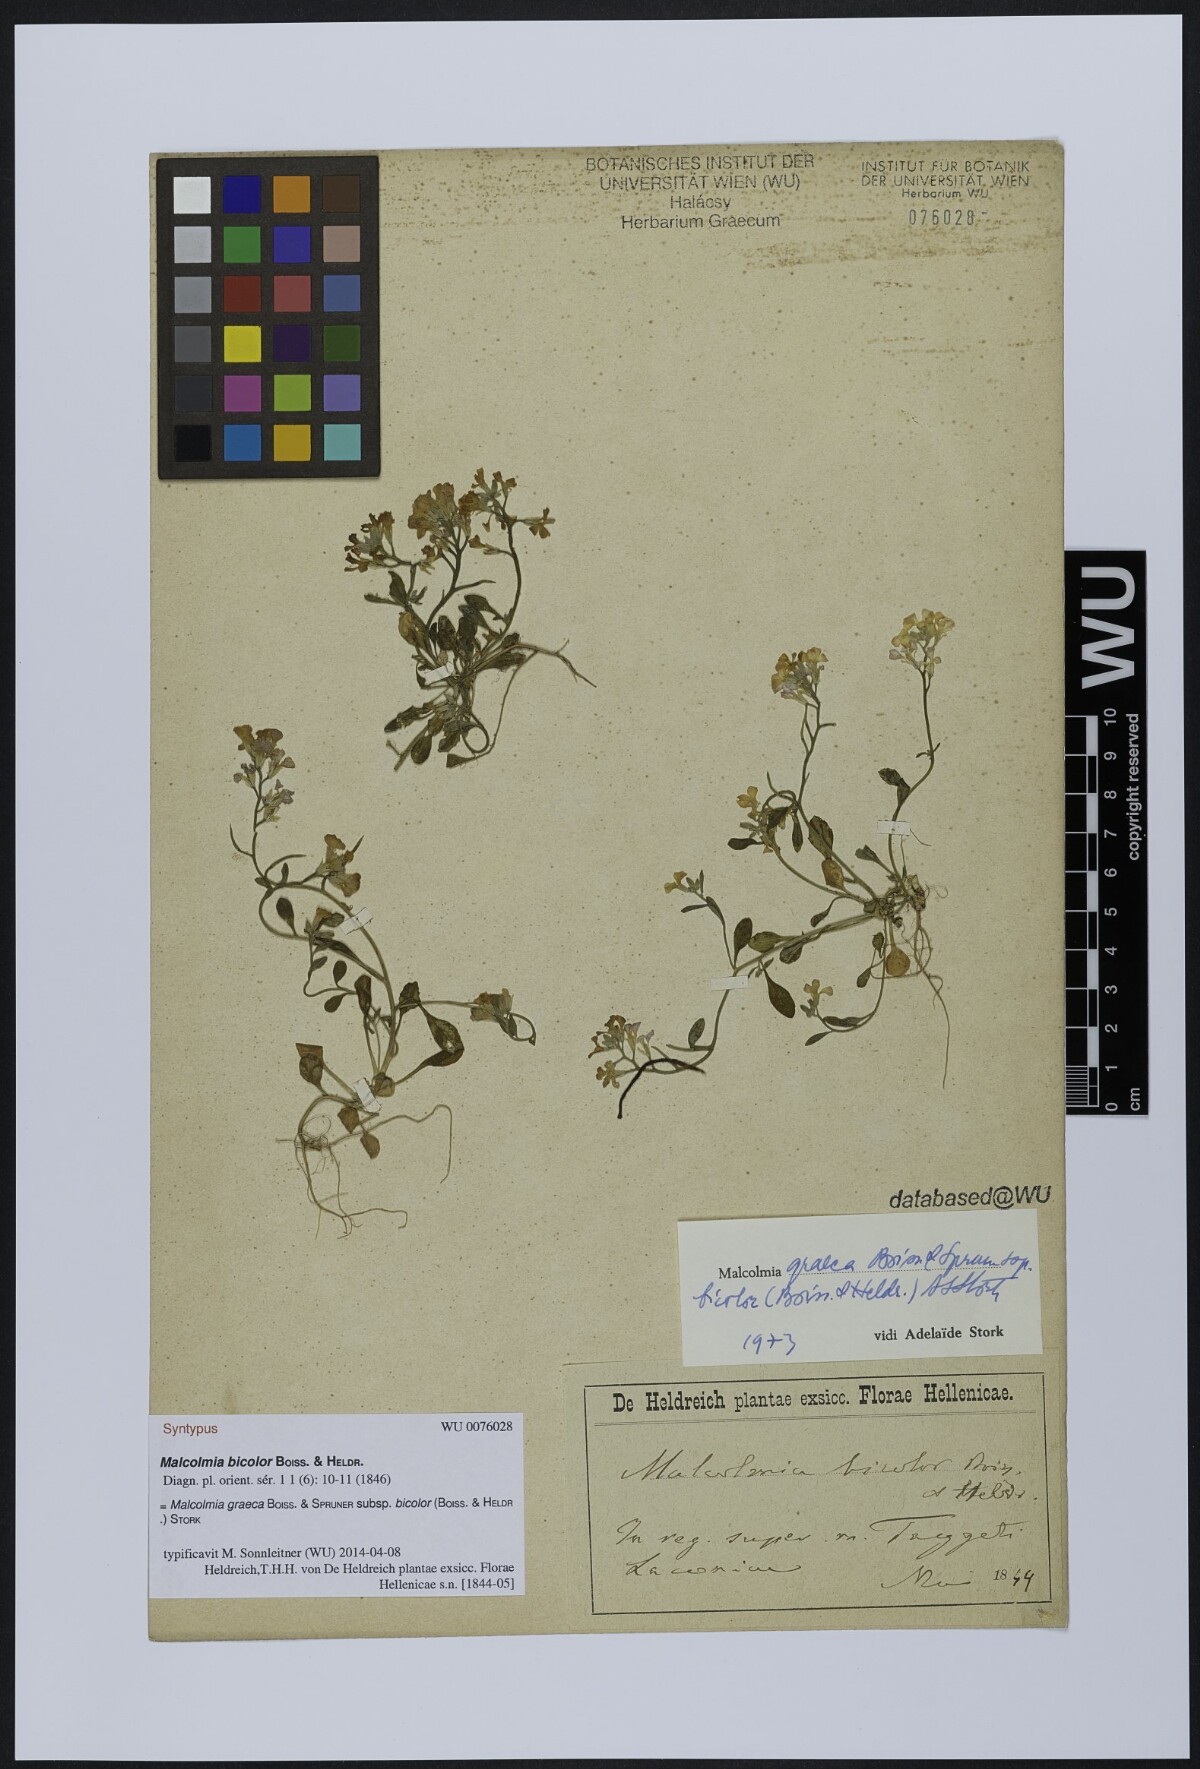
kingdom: Plantae
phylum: Tracheophyta
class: Magnoliopsida
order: Brassicales
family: Brassicaceae
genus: Malcolmia
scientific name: Malcolmia graeca
